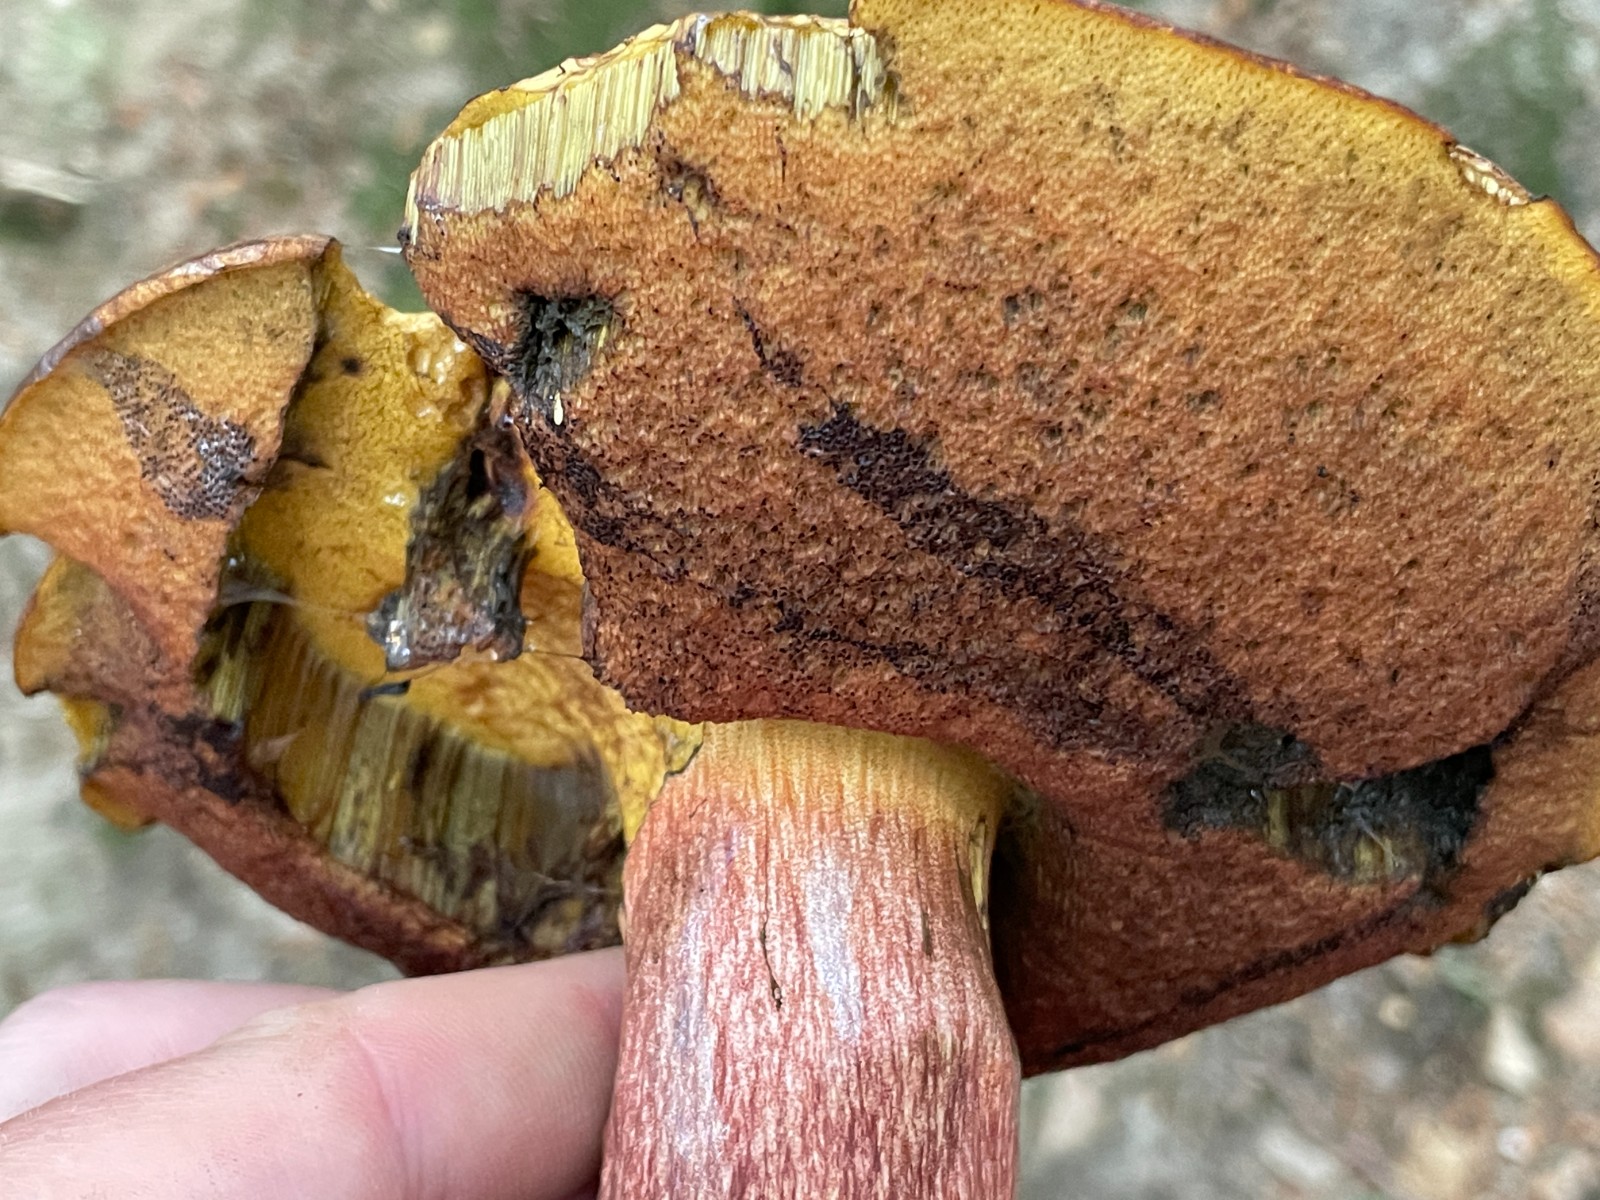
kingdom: Fungi
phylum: Basidiomycota
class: Agaricomycetes
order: Boletales
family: Boletaceae
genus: Neoboletus
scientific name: Neoboletus erythropus
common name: punktstokket indigorørhat
